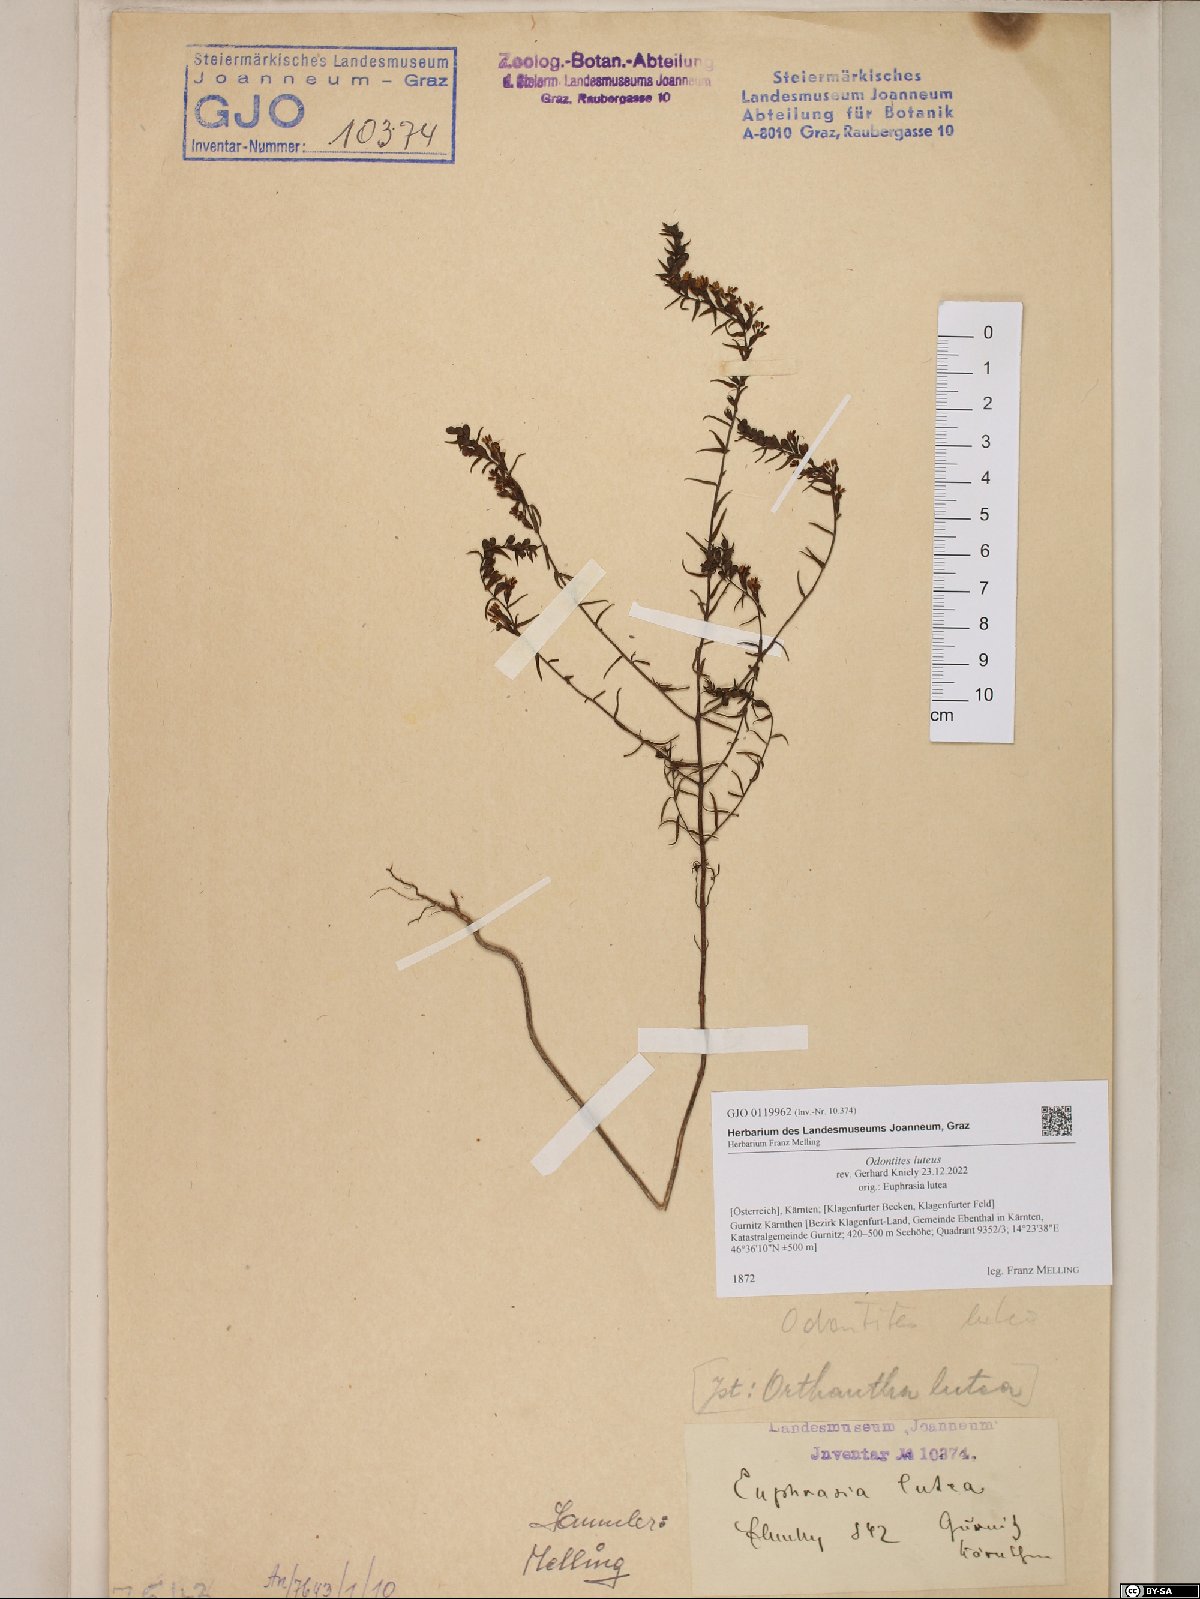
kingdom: Plantae
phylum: Tracheophyta
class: Magnoliopsida
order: Lamiales
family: Orobanchaceae
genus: Odontites
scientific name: Odontites luteus
